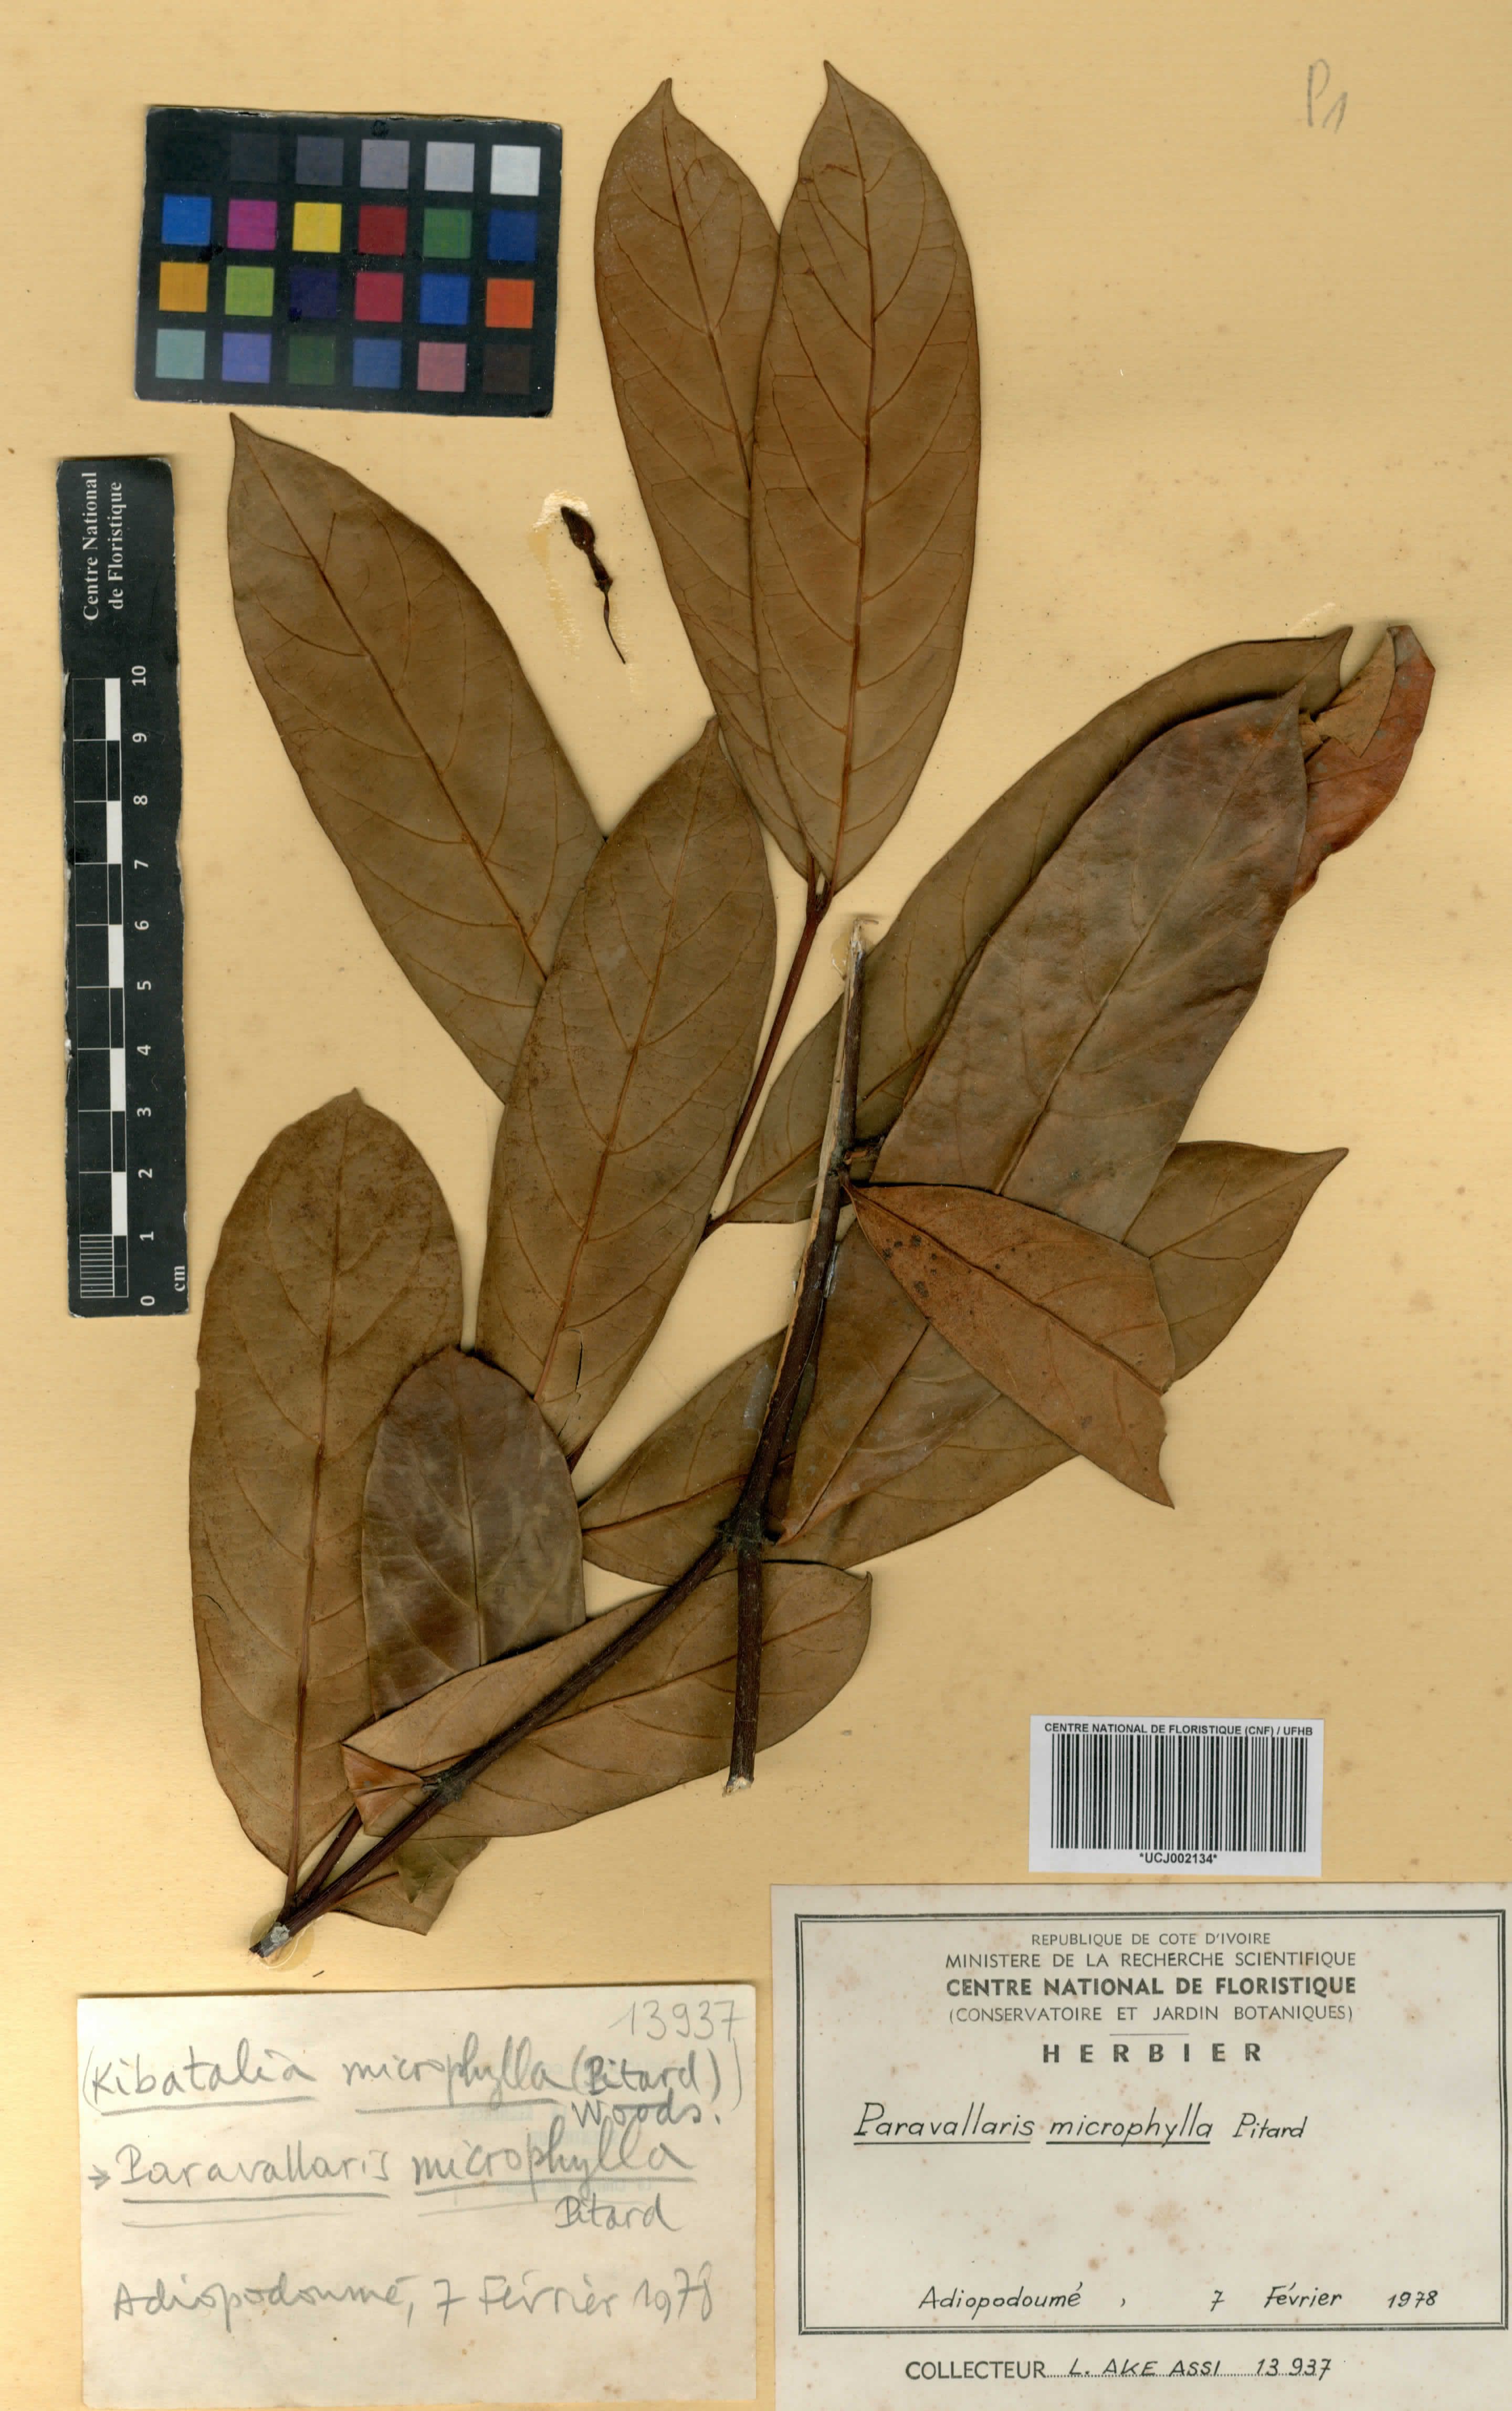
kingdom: Plantae
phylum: Tracheophyta
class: Magnoliopsida
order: Gentianales
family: Apocynaceae
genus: Kibatalia
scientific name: Kibatalia laurifolia
